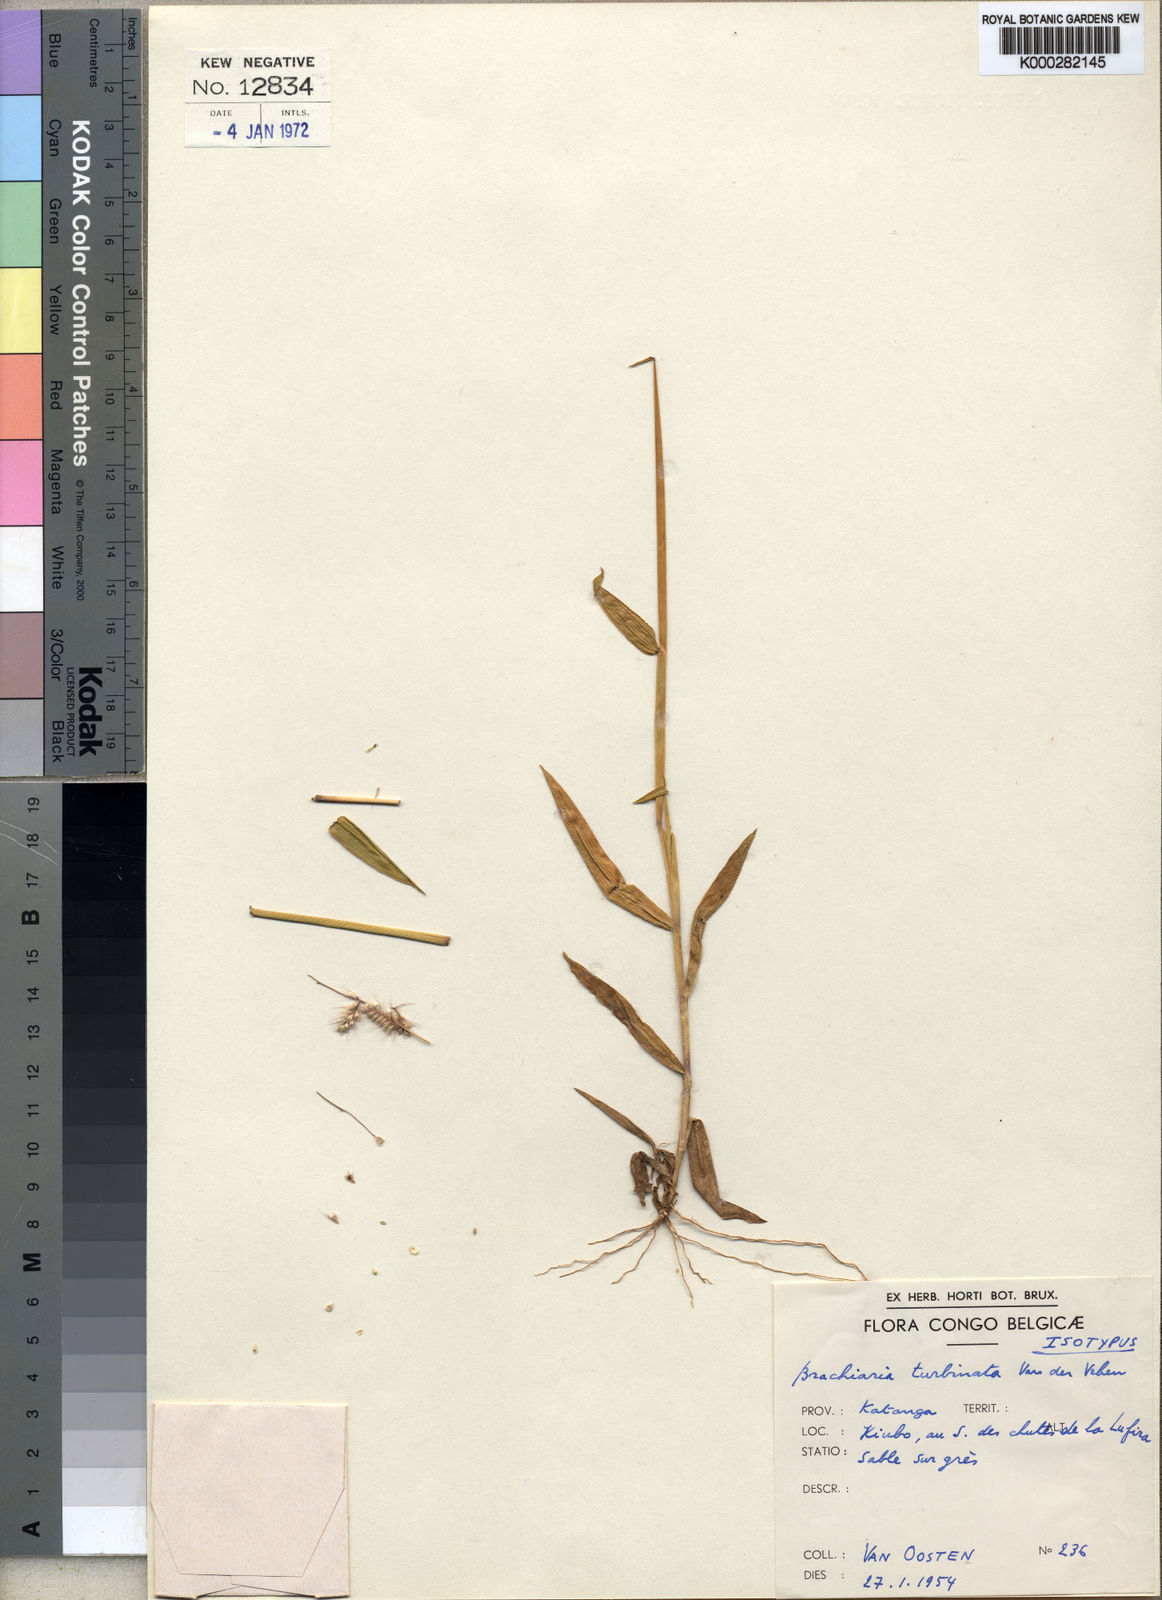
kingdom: Plantae
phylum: Tracheophyta
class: Liliopsida
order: Poales
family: Poaceae
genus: Urochloa
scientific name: Urochloa turbinata
